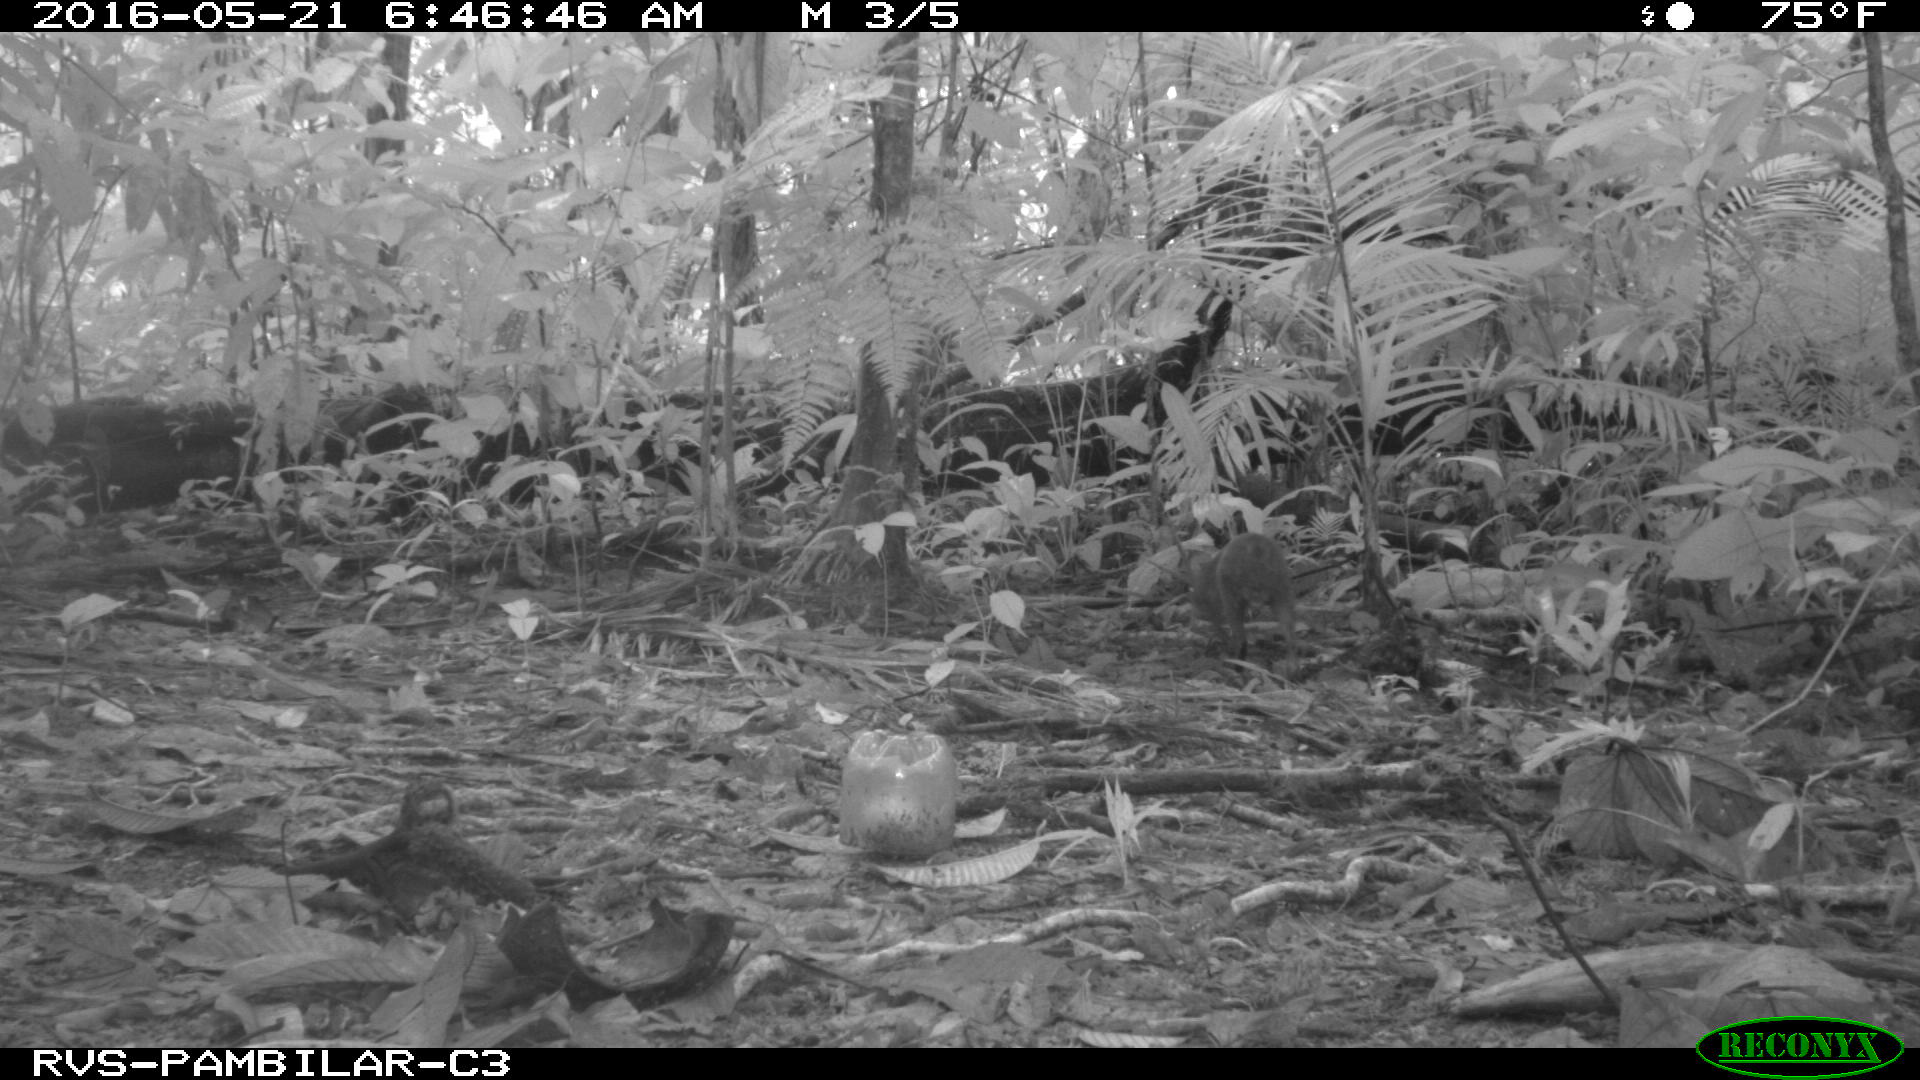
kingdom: Animalia
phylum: Chordata
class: Mammalia
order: Rodentia
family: Dasyproctidae
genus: Dasyprocta
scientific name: Dasyprocta punctata
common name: Central american agouti
